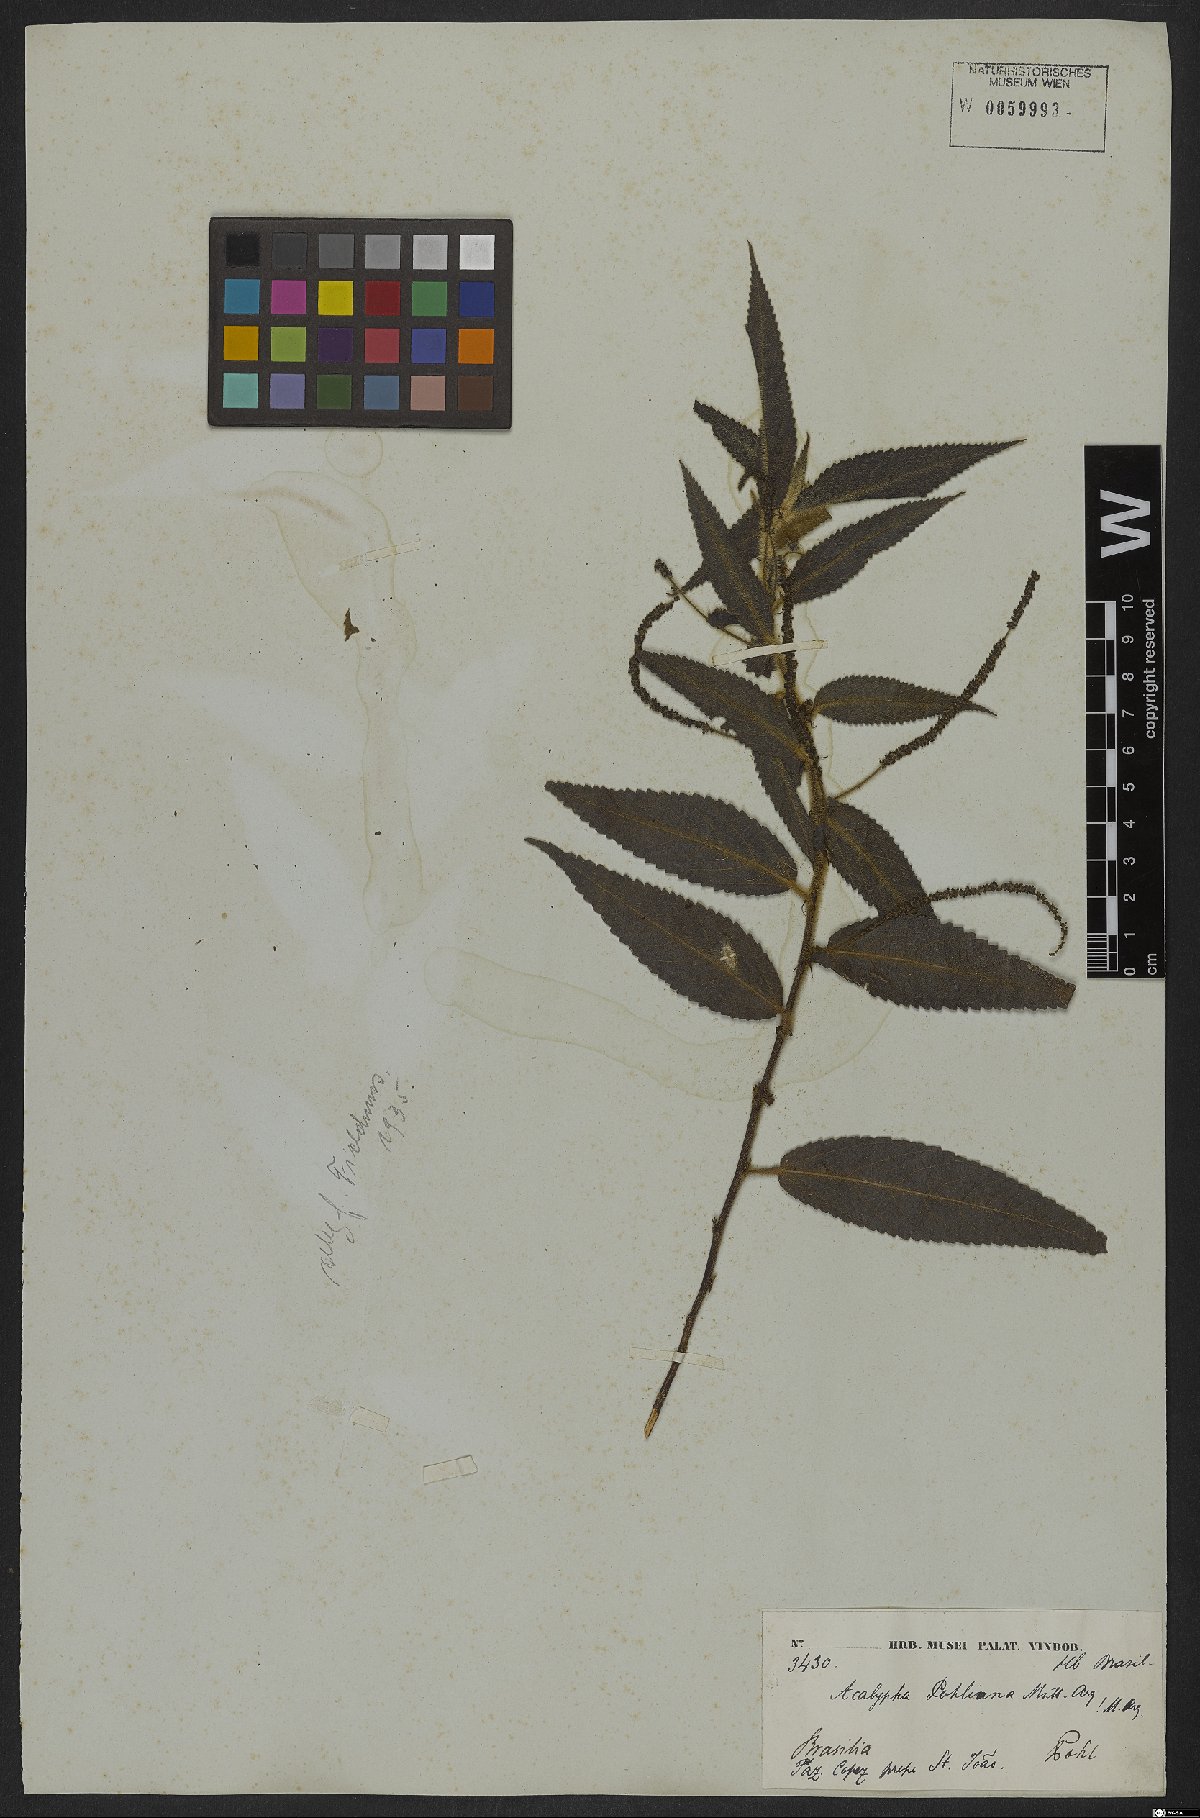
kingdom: Plantae
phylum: Tracheophyta
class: Magnoliopsida
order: Malpighiales
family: Euphorbiaceae
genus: Acalypha
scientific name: Acalypha pohliana
